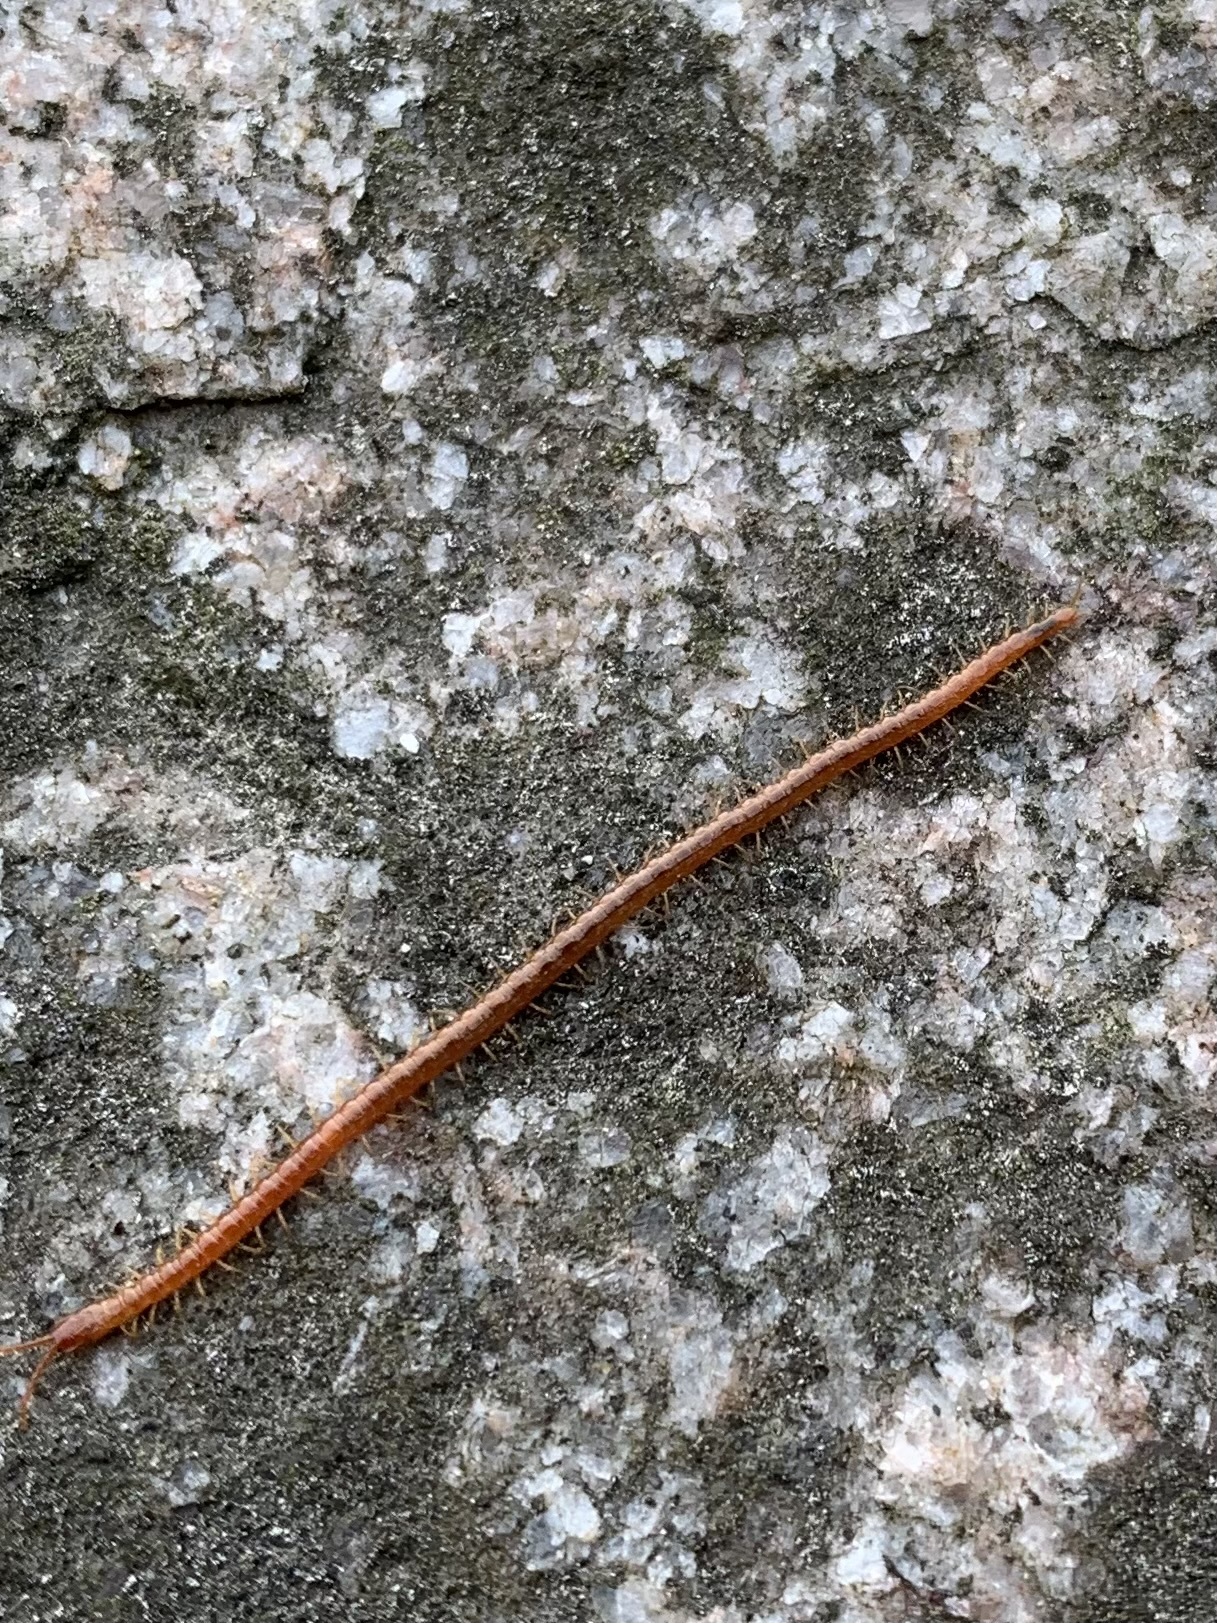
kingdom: Animalia
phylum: Arthropoda
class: Chilopoda
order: Geophilomorpha
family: Geophilidae
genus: Pachymerium
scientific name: Pachymerium ferrugineum
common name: Centipede
